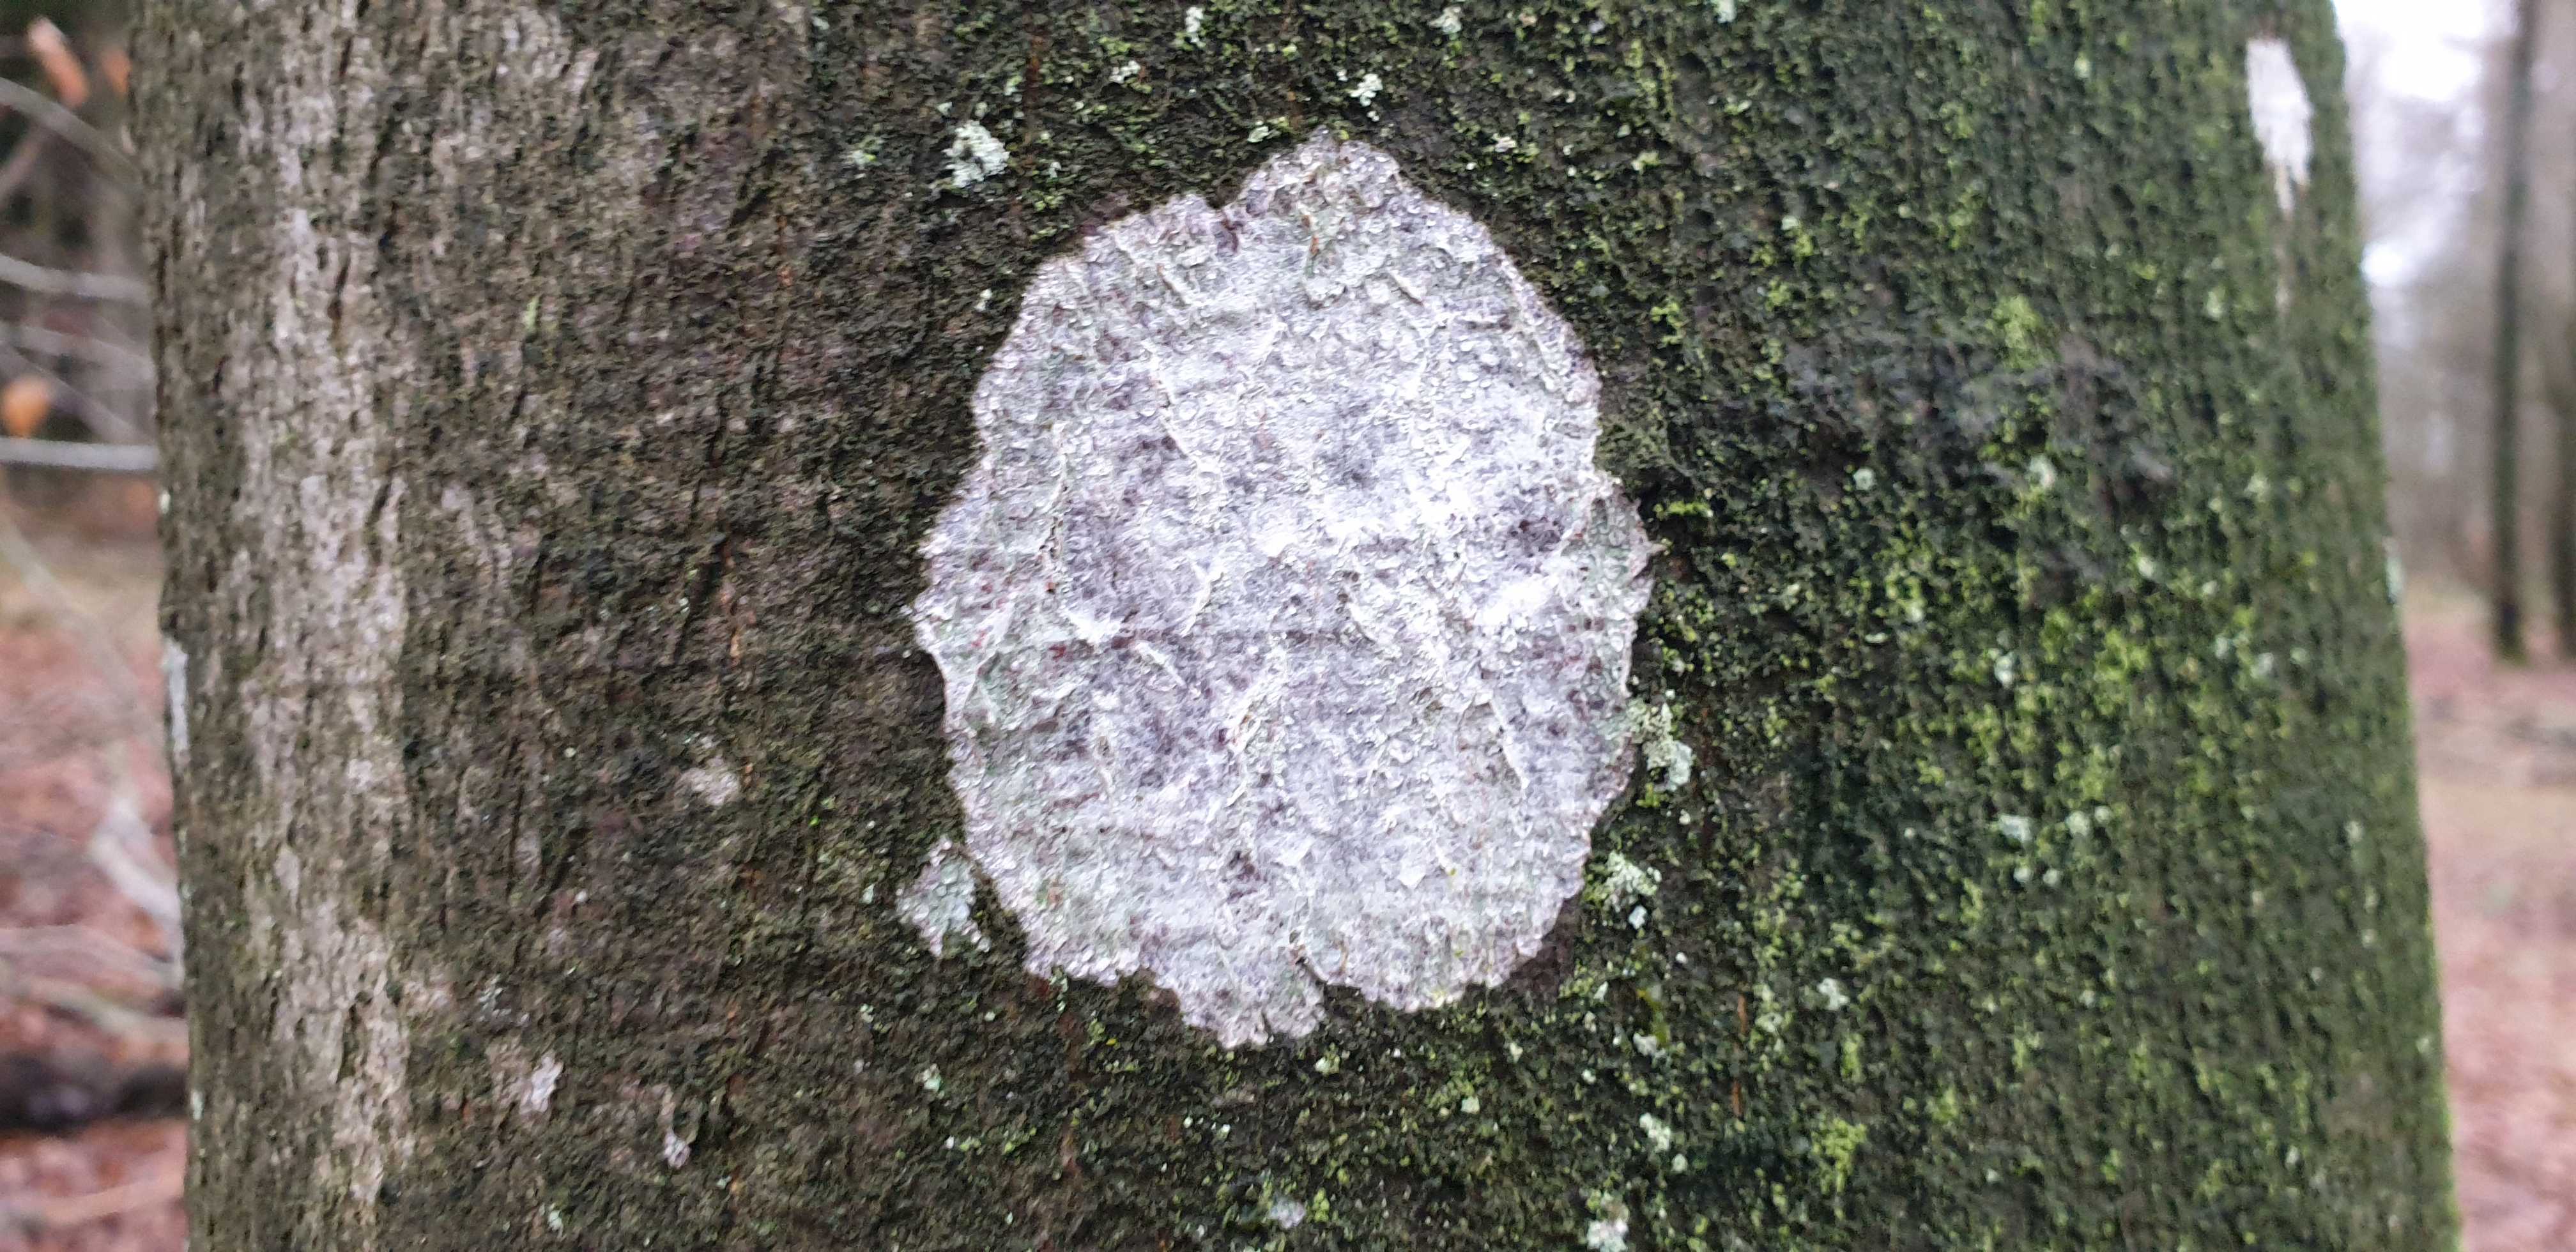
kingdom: Fungi
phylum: Ascomycota
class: Lecanoromycetes
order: Ostropales
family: Phlyctidaceae
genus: Phlyctis
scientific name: Phlyctis argena
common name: almindelig sølvlav
